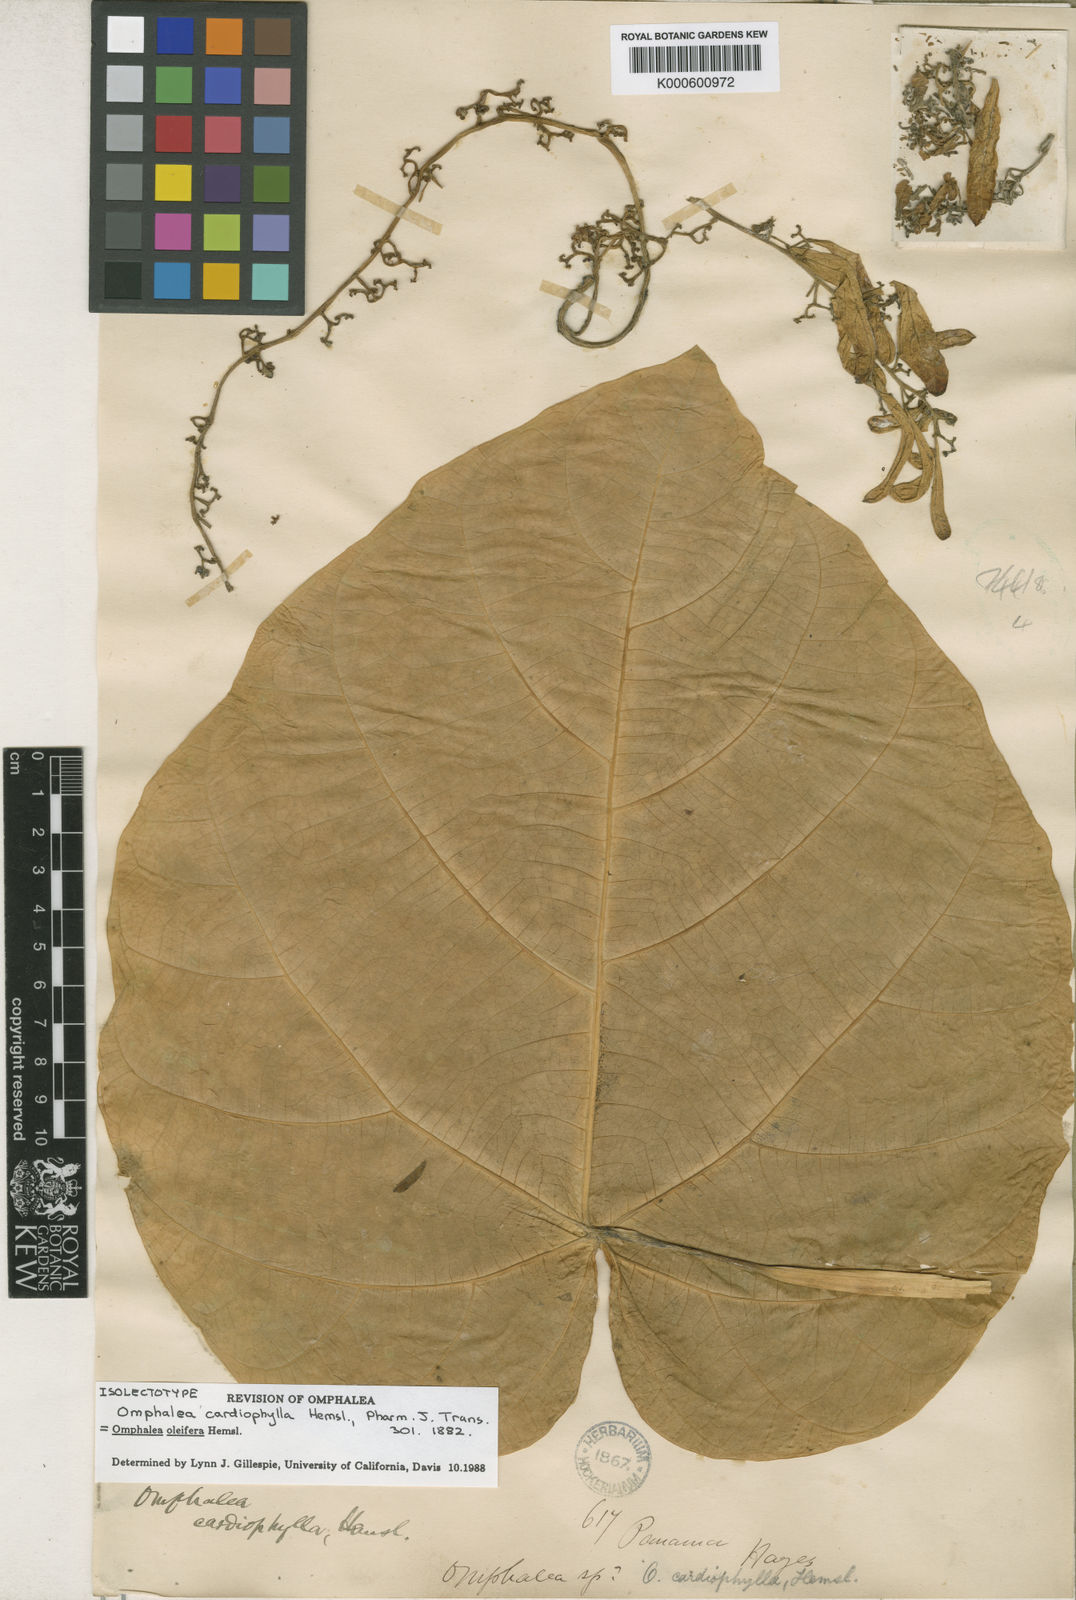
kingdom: Plantae
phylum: Tracheophyta
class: Magnoliopsida
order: Malpighiales
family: Euphorbiaceae
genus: Omphalea
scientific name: Omphalea oleifera
